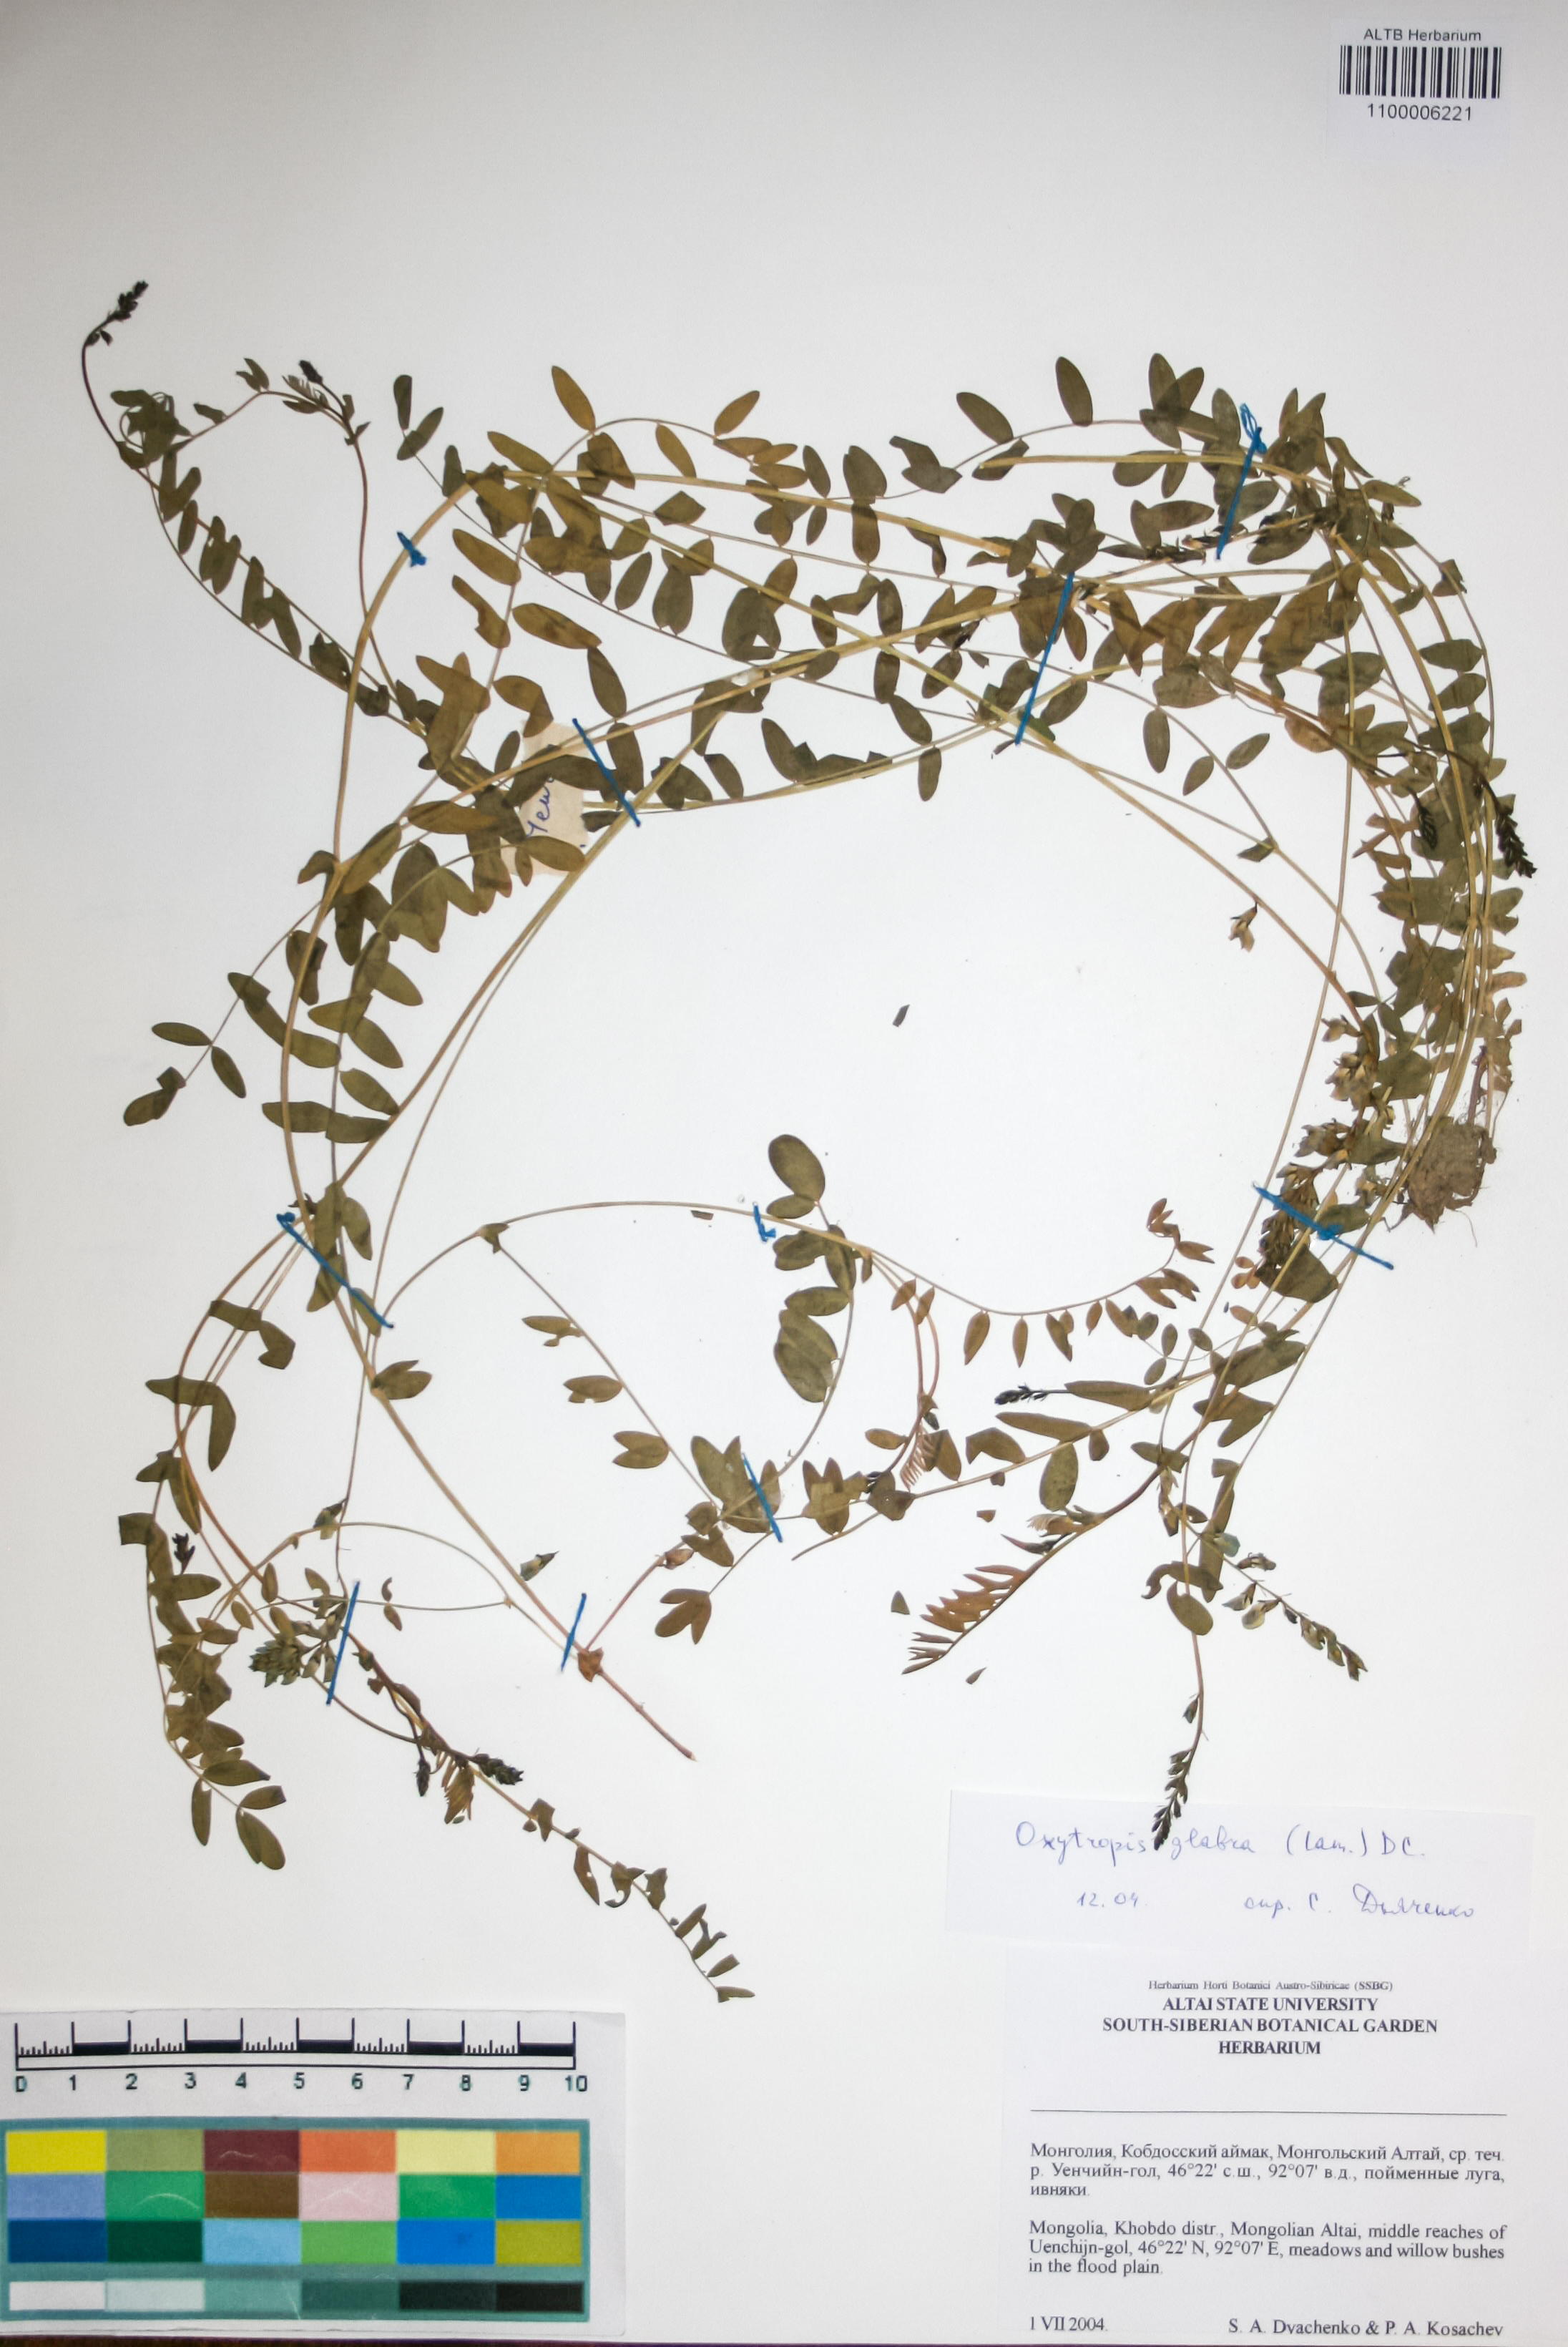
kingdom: Plantae
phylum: Tracheophyta
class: Magnoliopsida
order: Fabales
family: Fabaceae
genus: Oxytropis
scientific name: Oxytropis glabra
